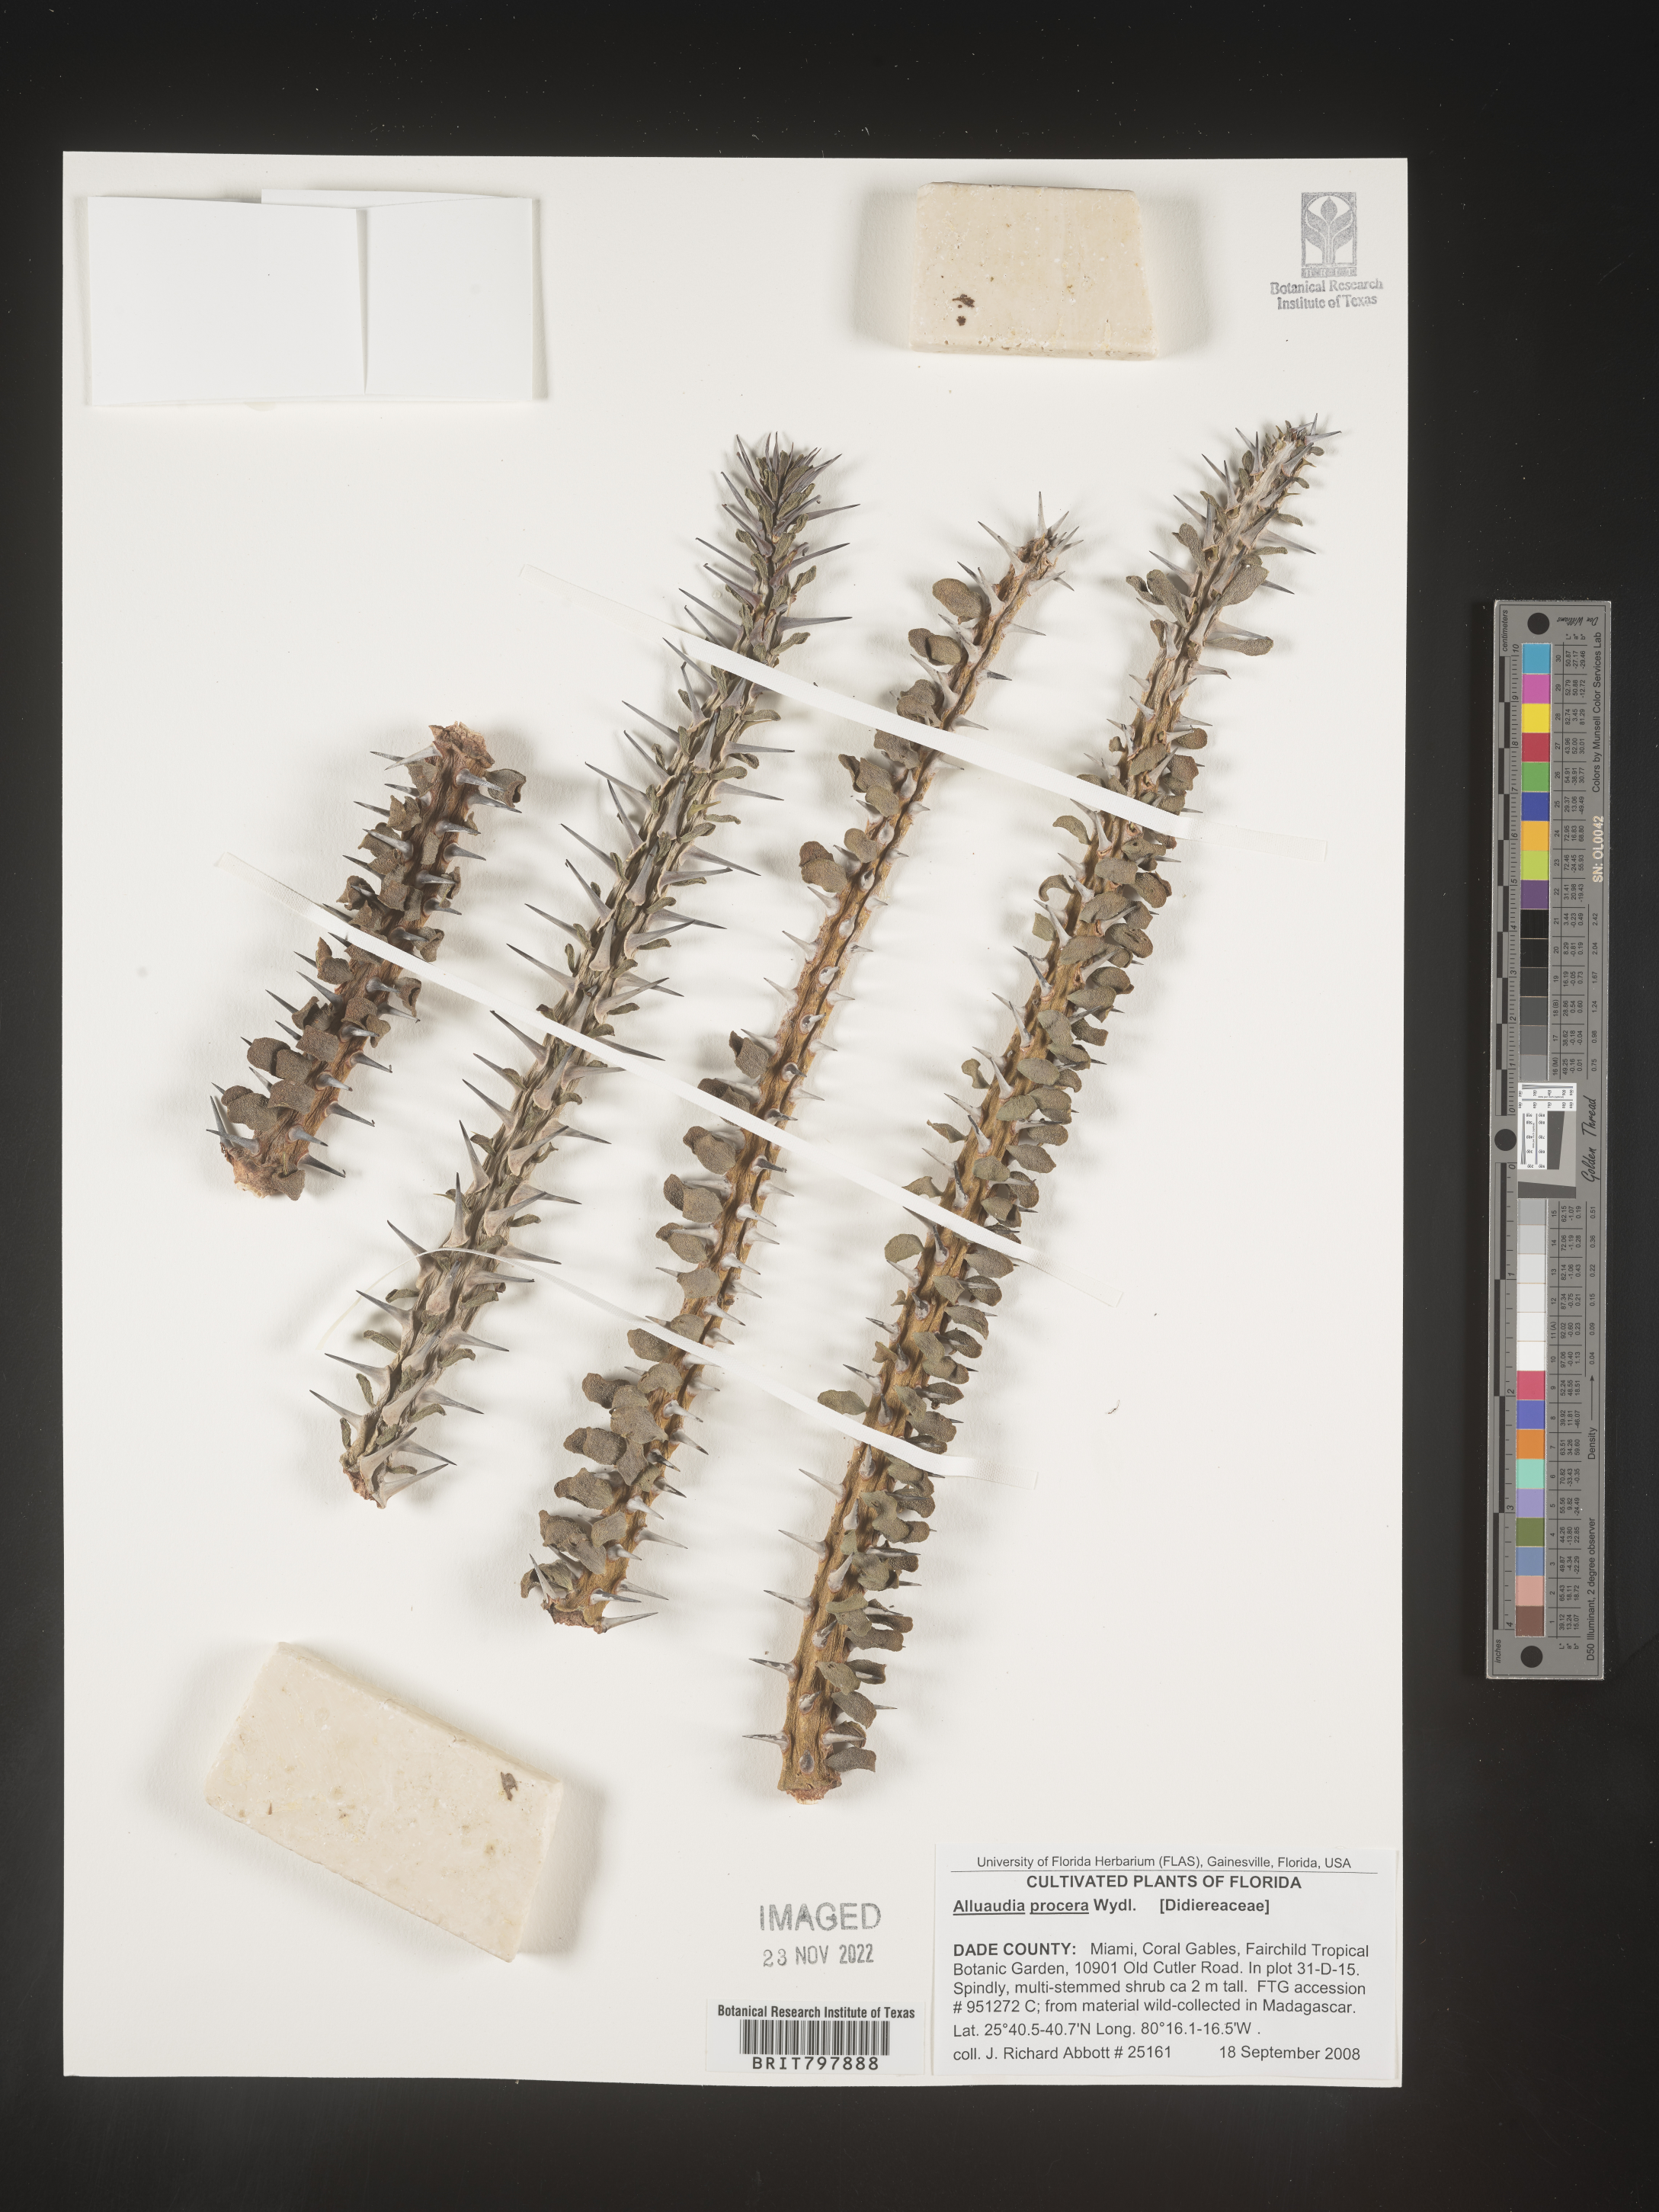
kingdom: Plantae
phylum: Tracheophyta
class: Magnoliopsida
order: Caryophyllales
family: Didiereaceae
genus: Alluaudia
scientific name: Alluaudia procera
